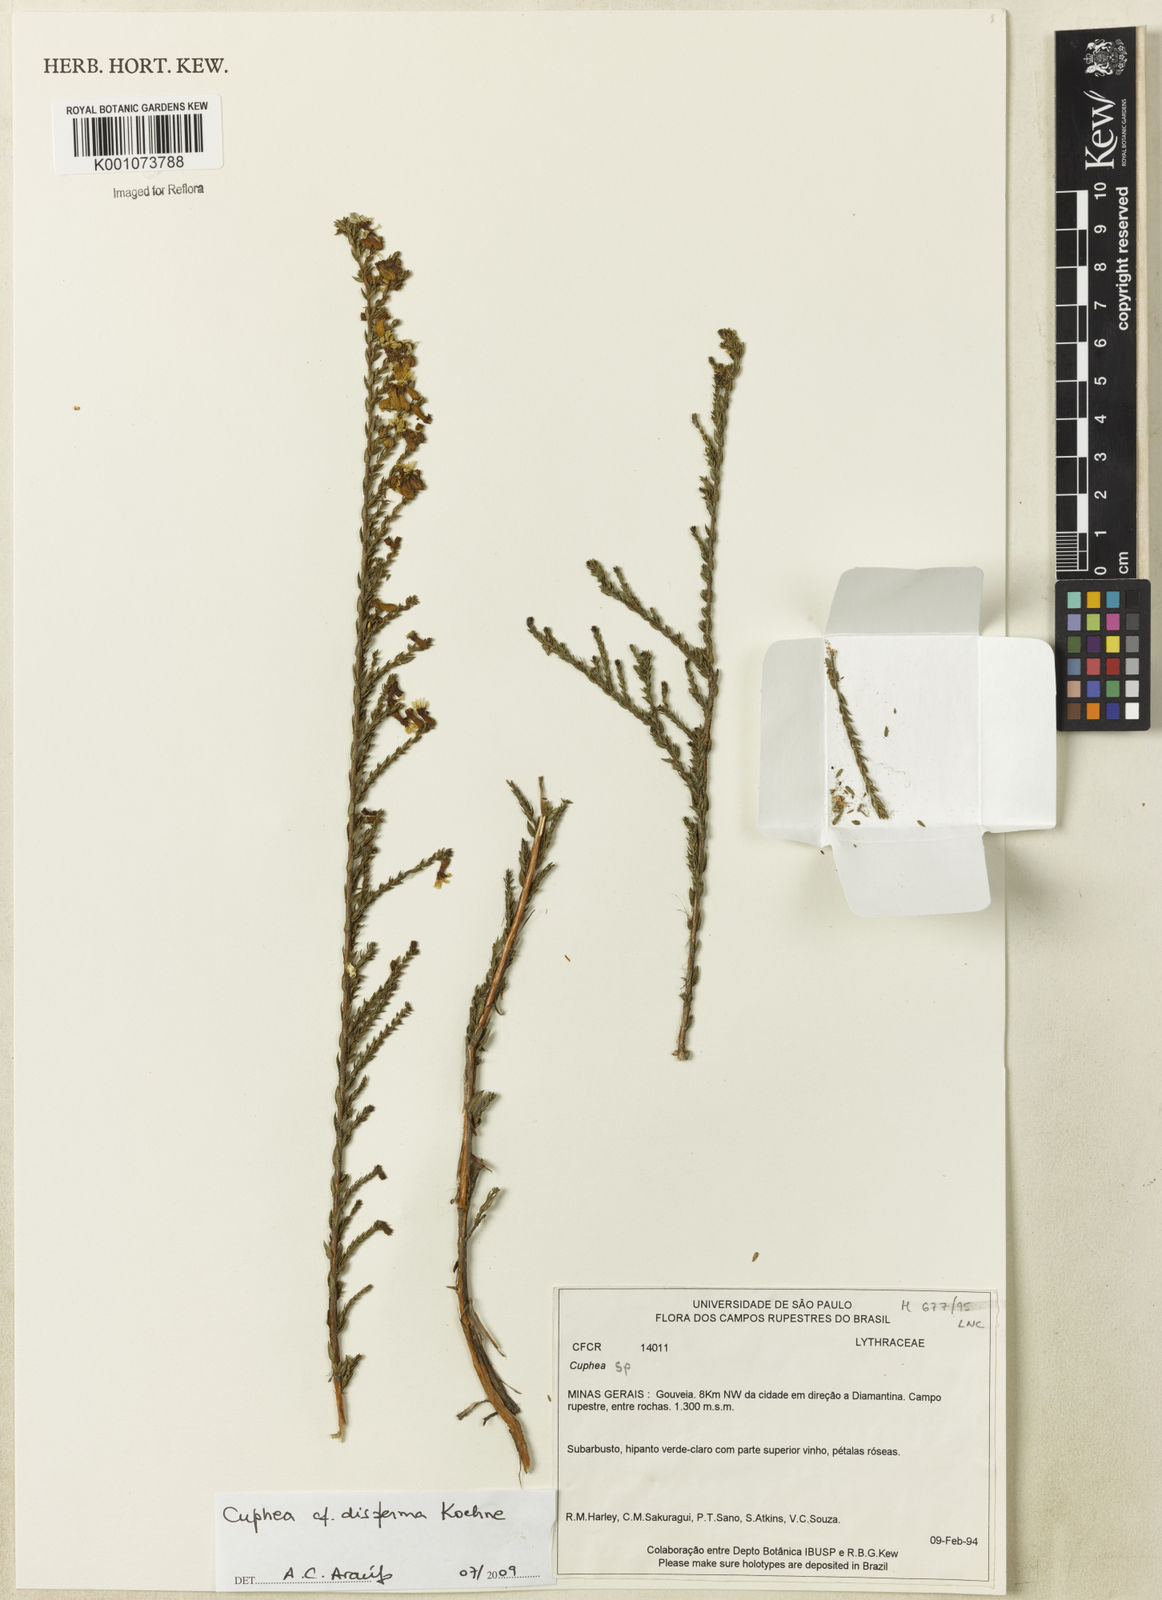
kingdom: Plantae
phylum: Tracheophyta
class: Magnoliopsida
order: Myrtales
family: Lythraceae
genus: Cuphea
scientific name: Cuphea disperma
